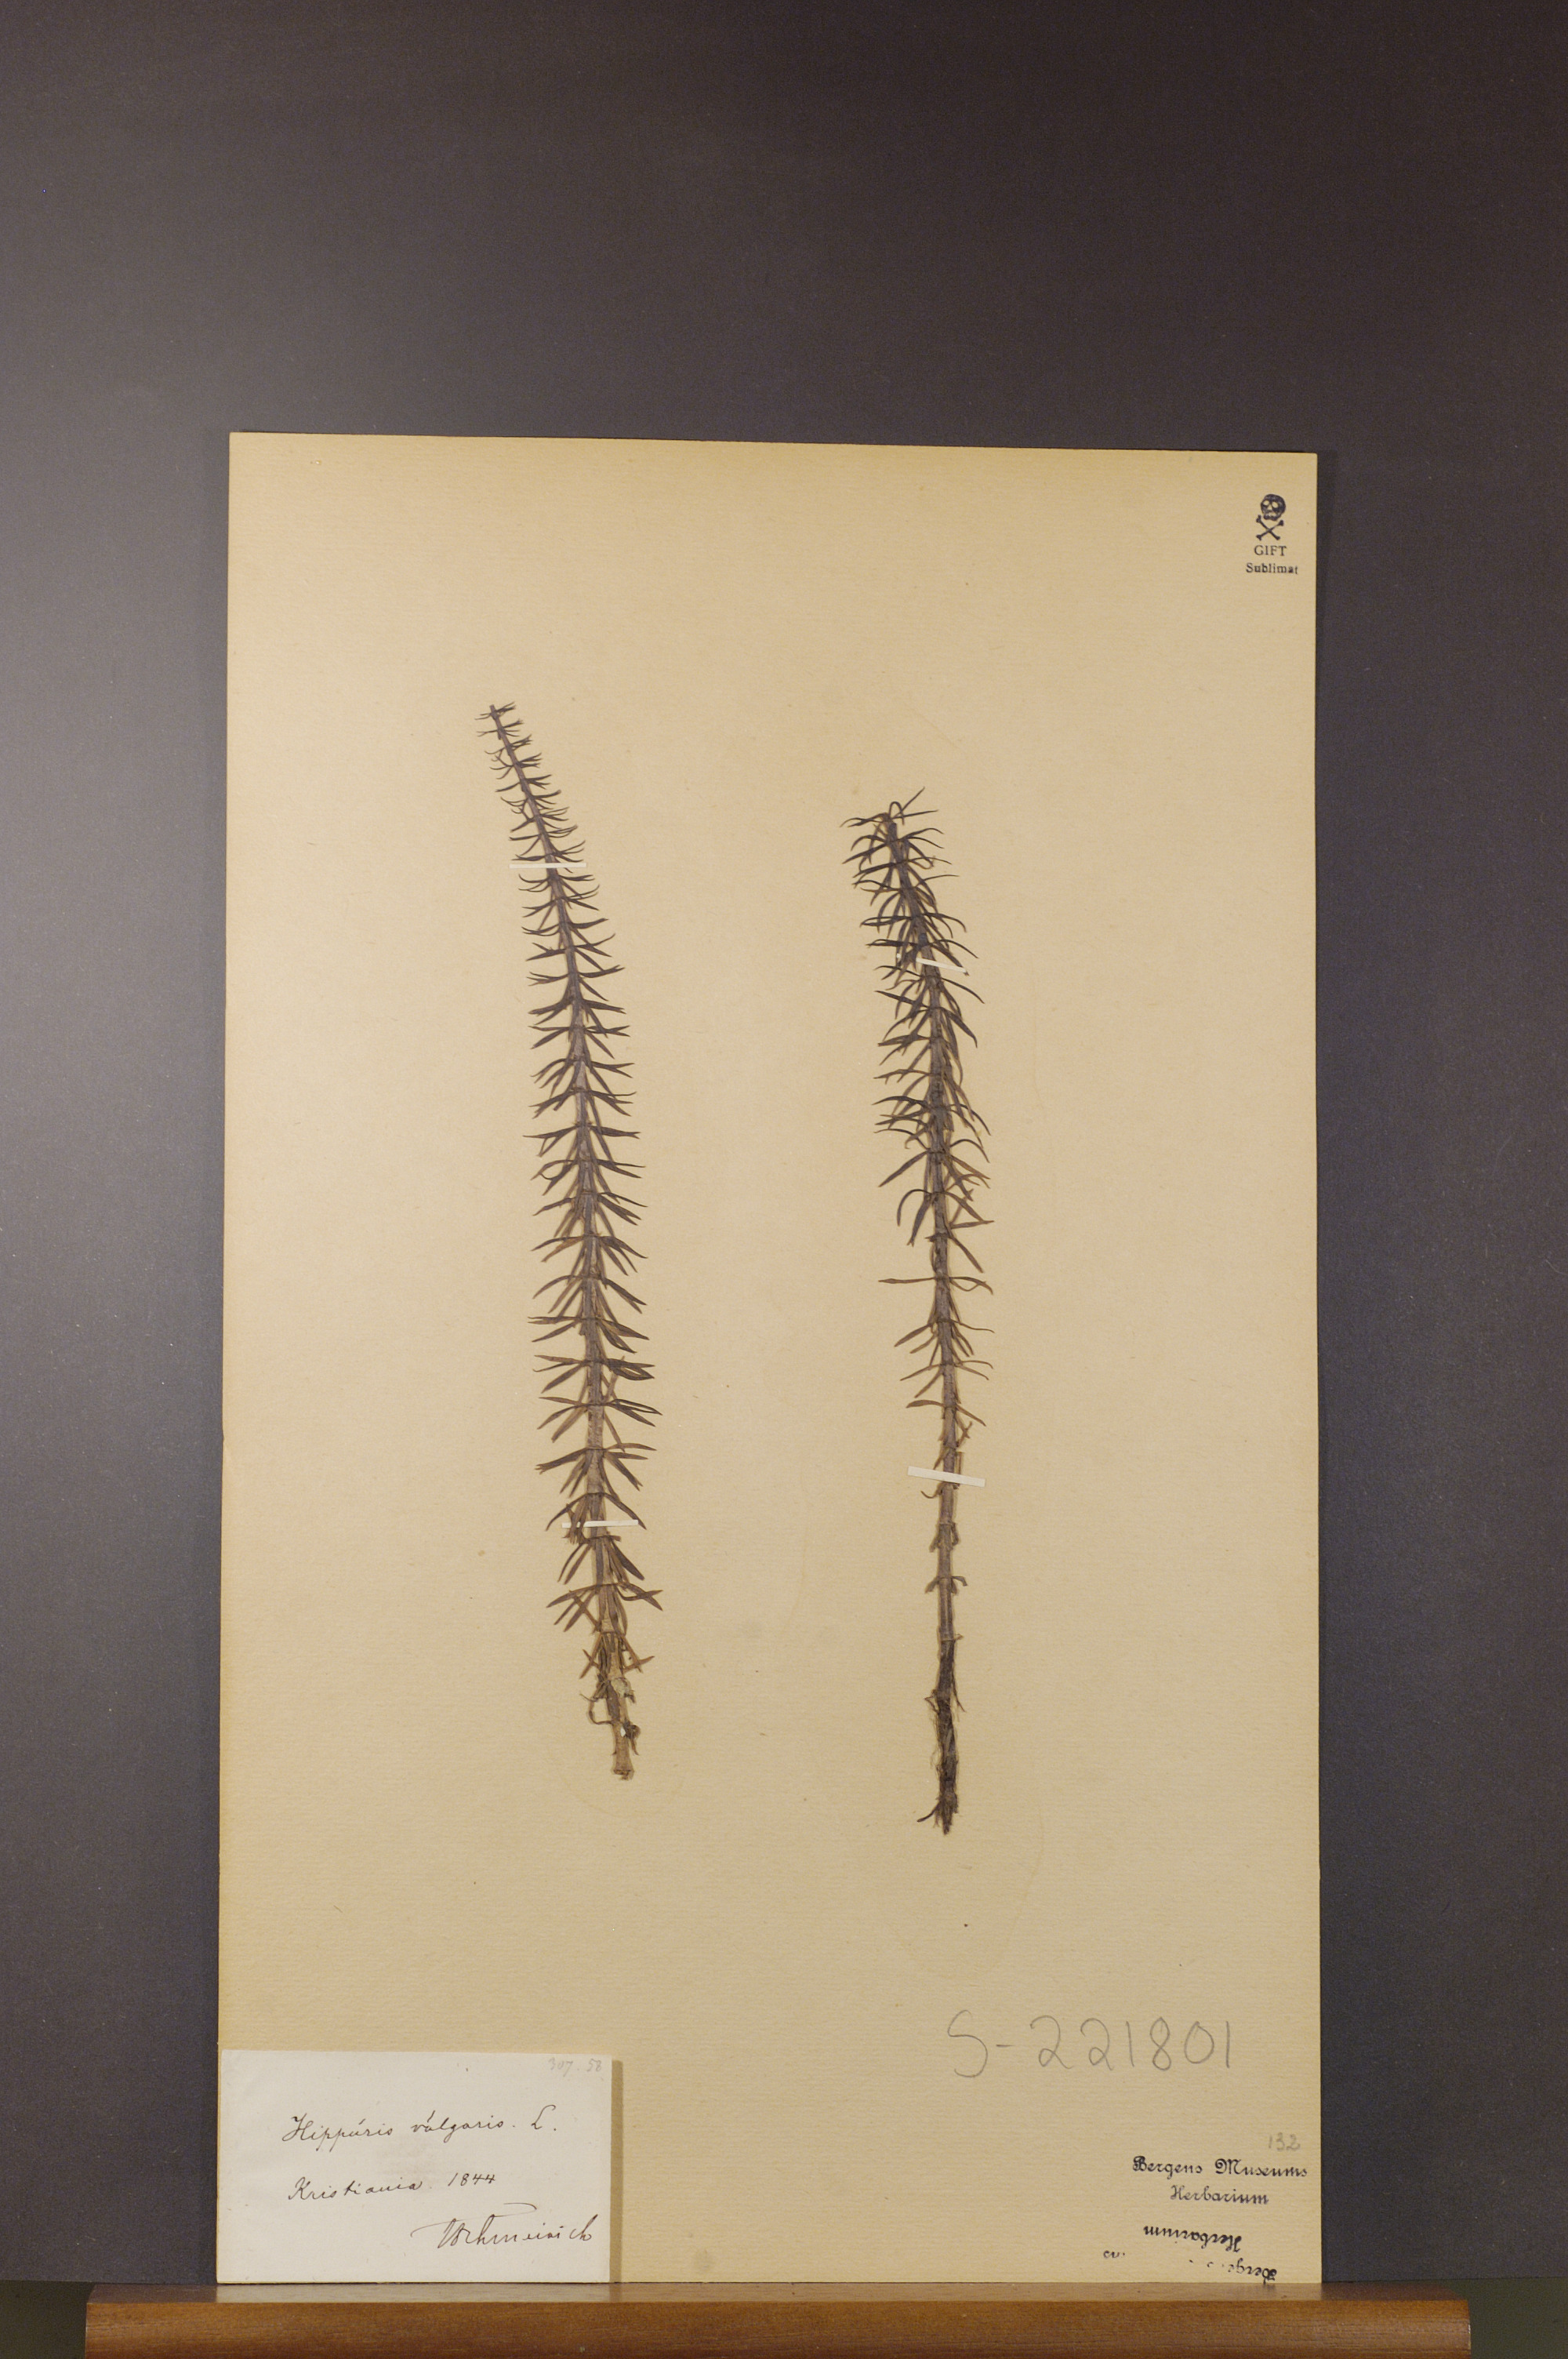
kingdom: Plantae
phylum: Tracheophyta
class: Magnoliopsida
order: Lamiales
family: Plantaginaceae
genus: Hippuris
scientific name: Hippuris vulgaris
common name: Mare's-tail
